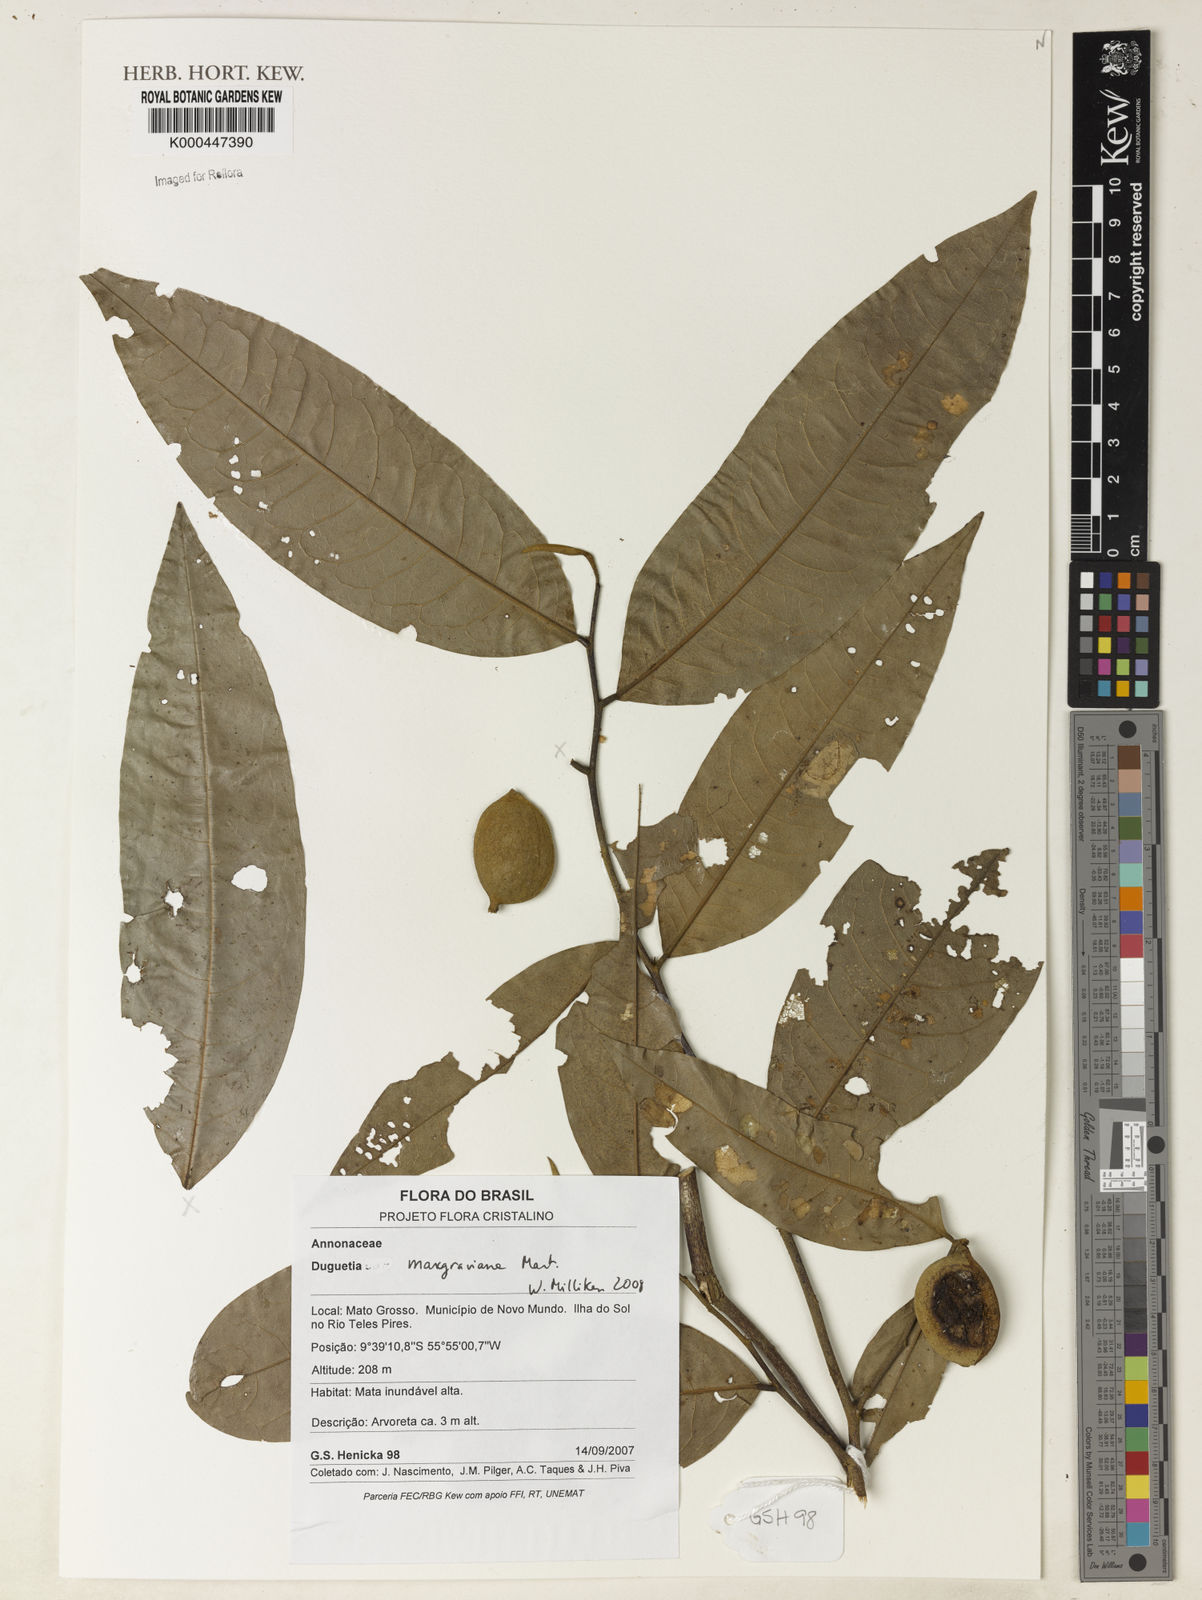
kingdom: Plantae
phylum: Tracheophyta
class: Magnoliopsida
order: Magnoliales
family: Annonaceae
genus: Duguetia
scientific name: Duguetia marcgraviana
